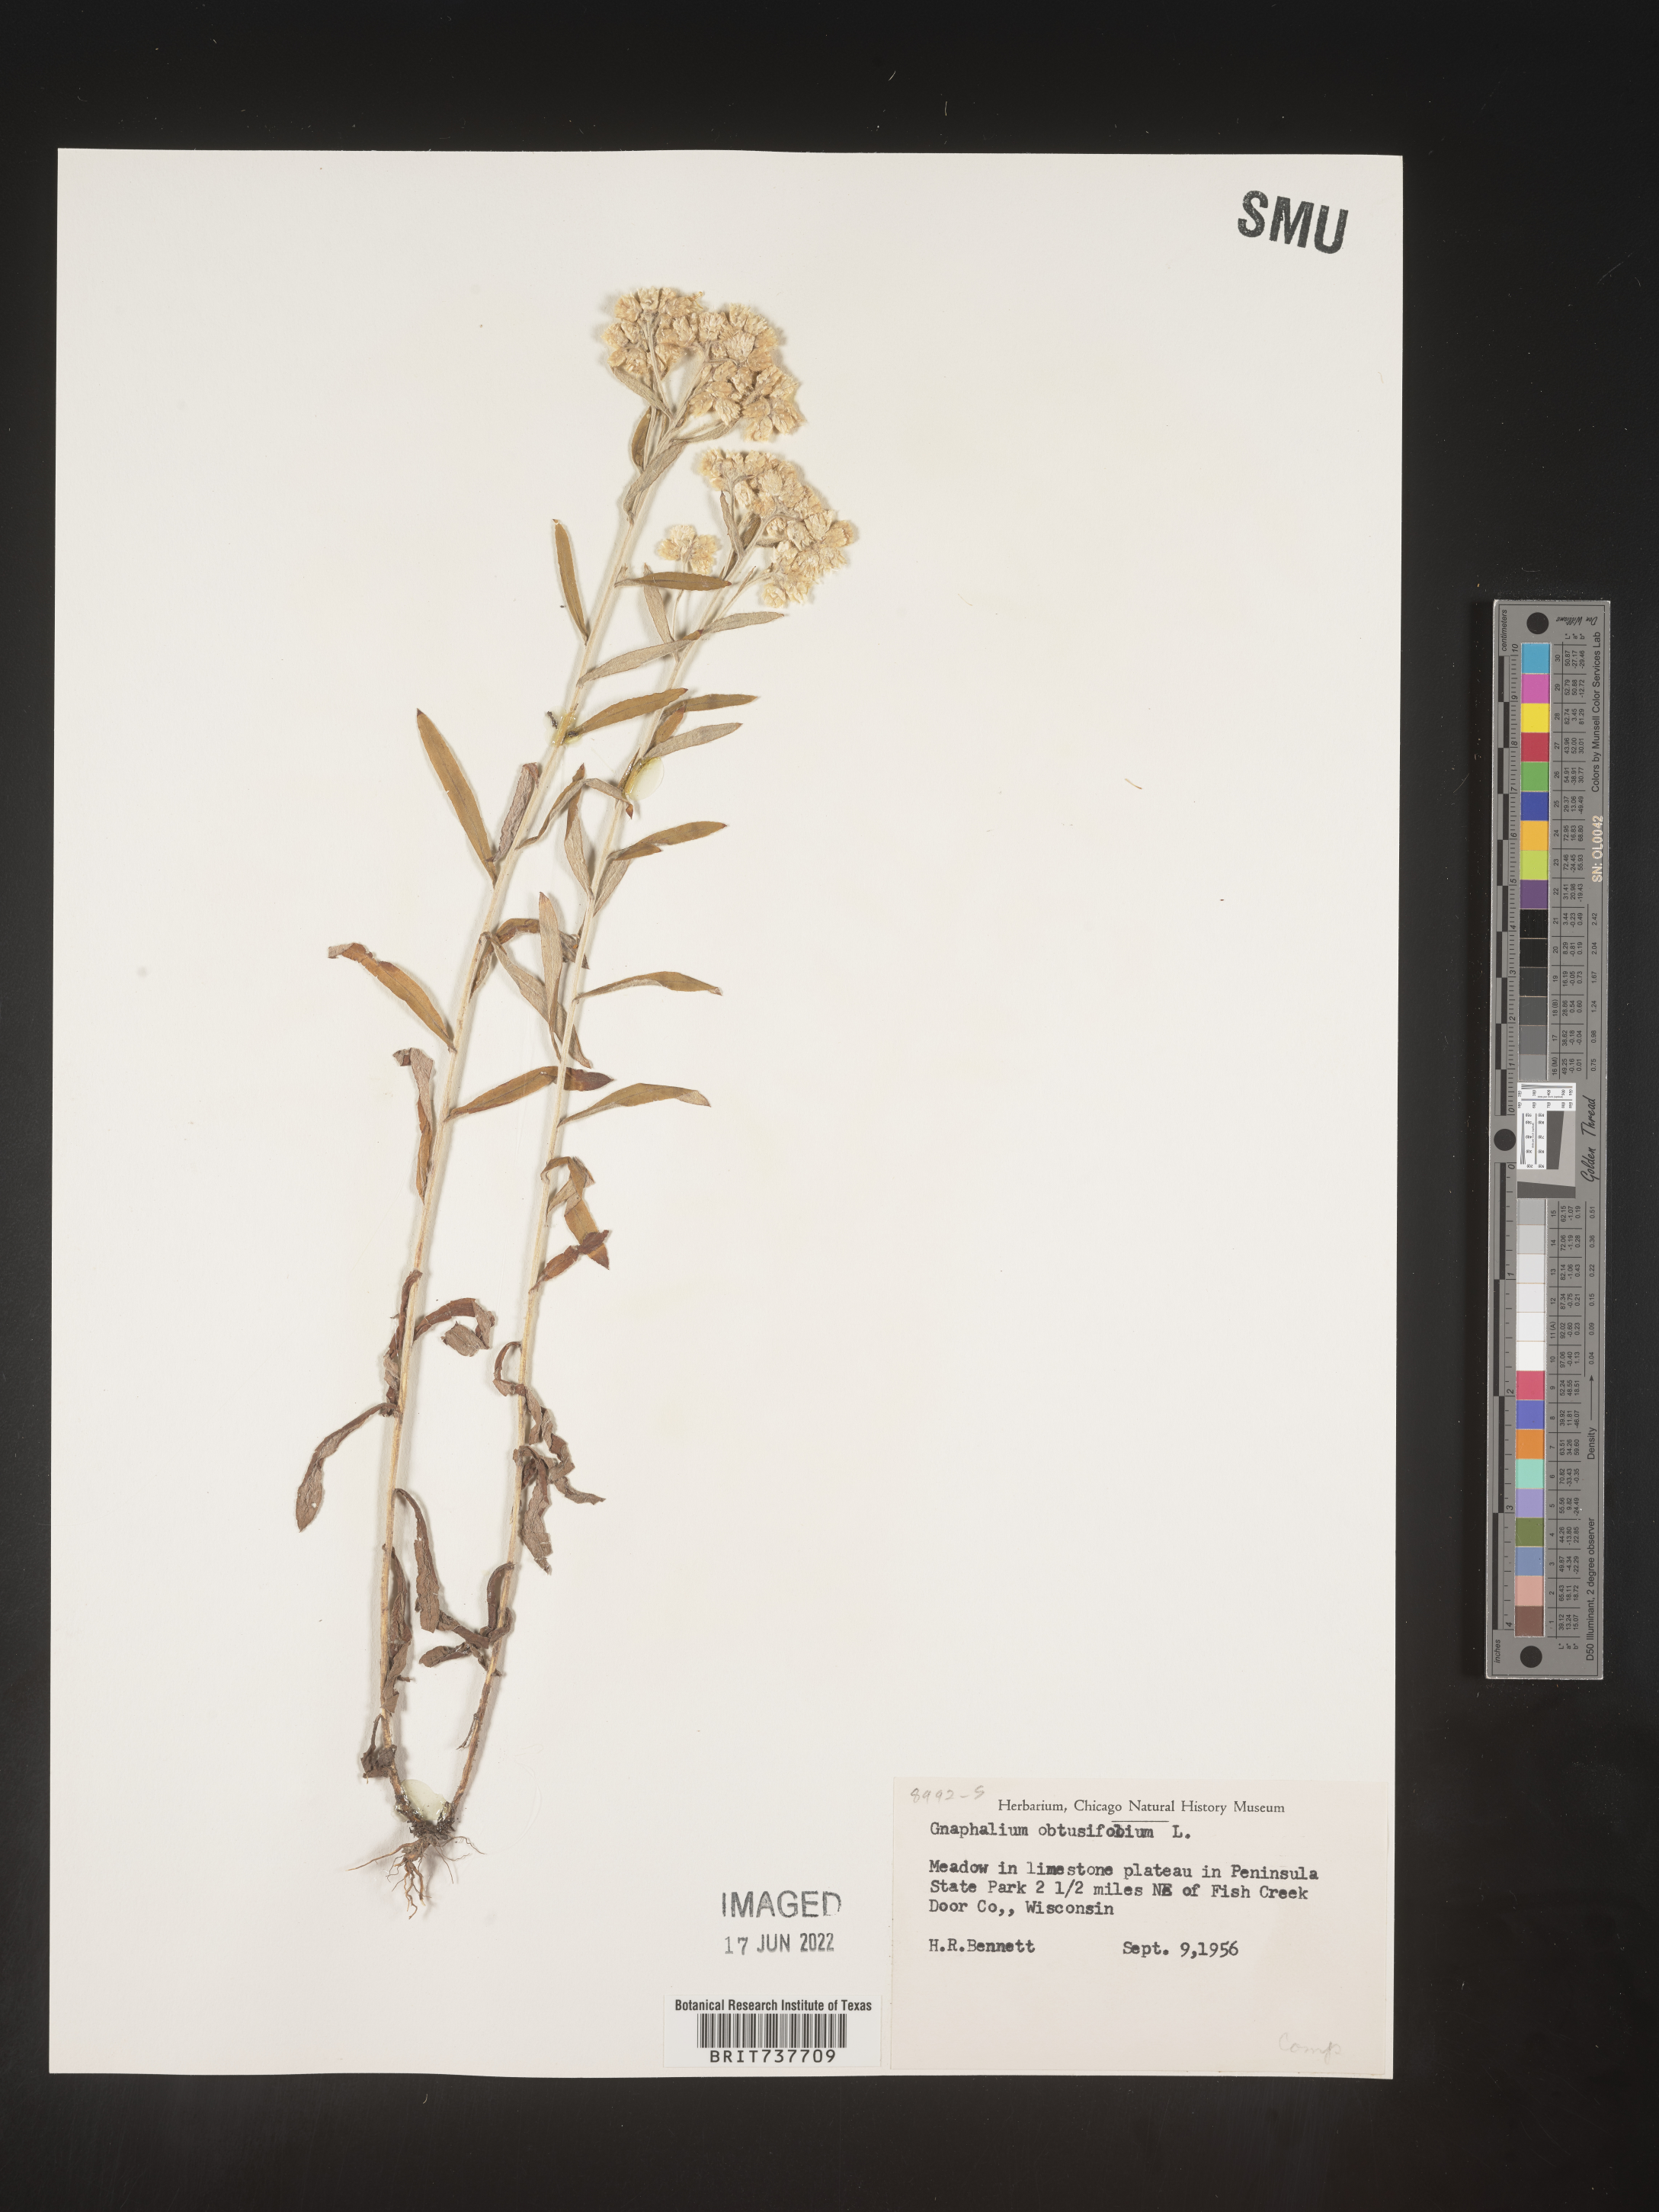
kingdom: Plantae
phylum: Tracheophyta
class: Magnoliopsida
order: Asterales
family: Asteraceae
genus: Pseudognaphalium
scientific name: Pseudognaphalium obtusifolium
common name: Eastern rabbit-tobacco
